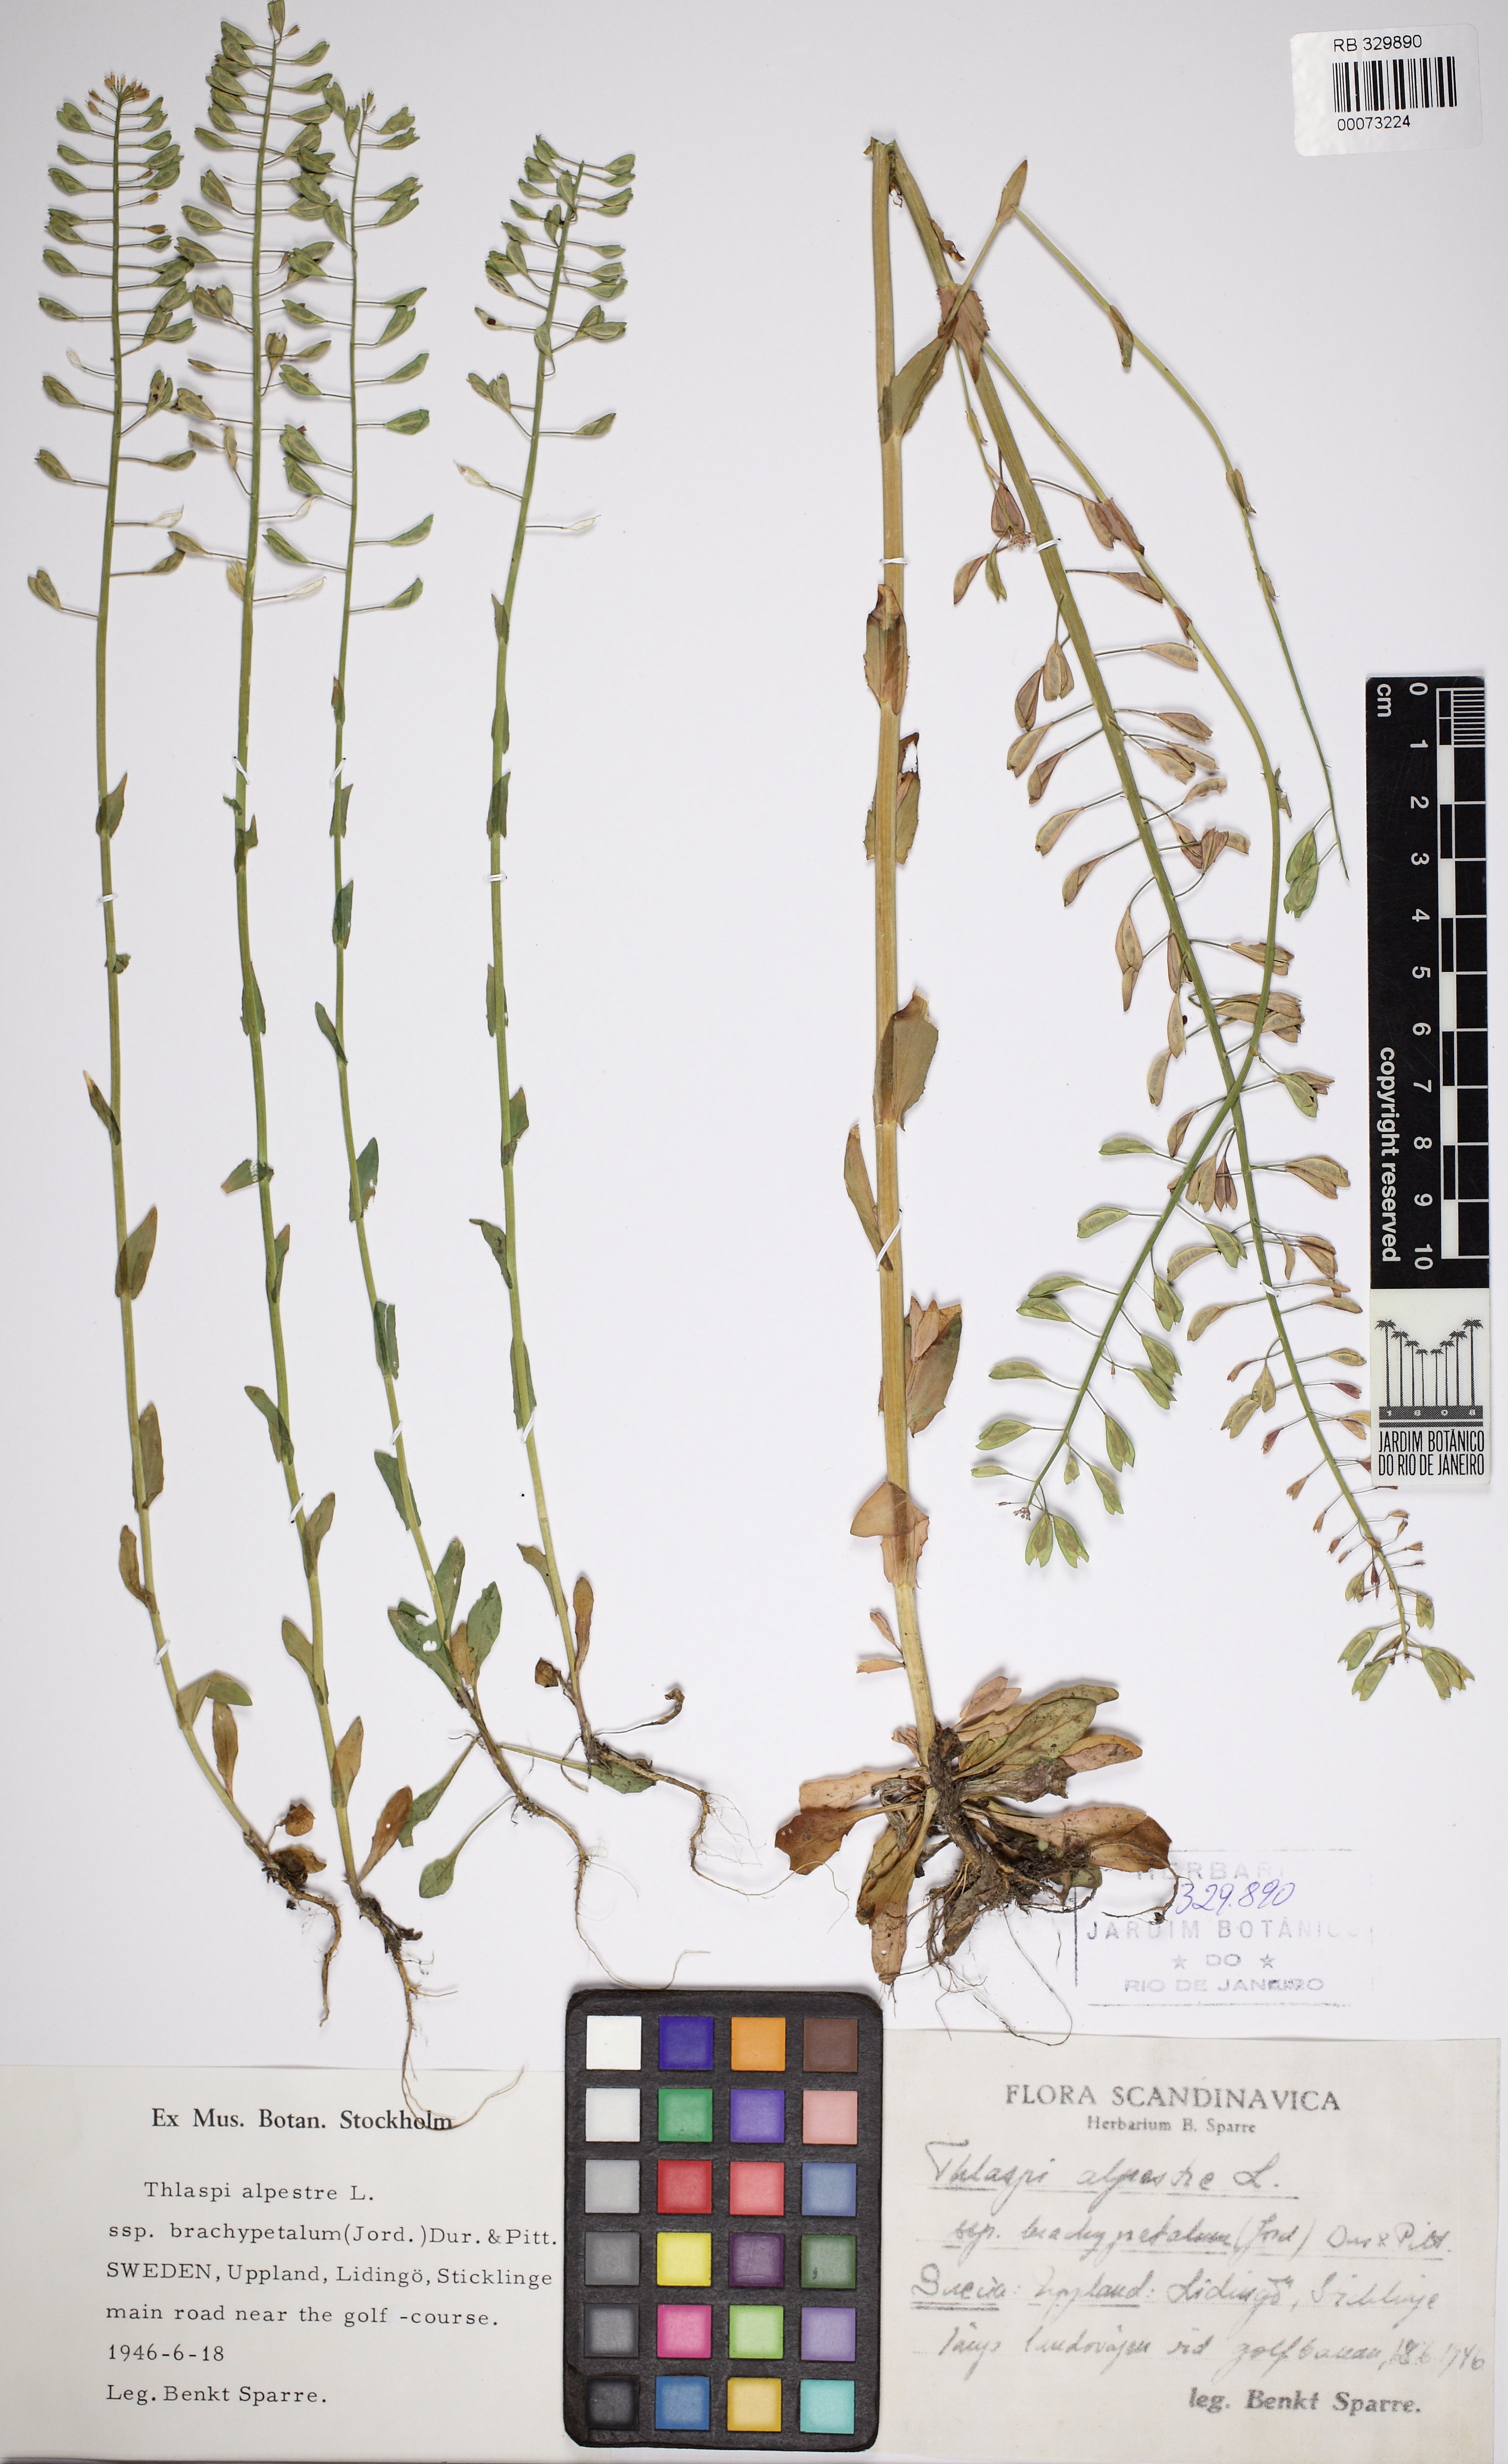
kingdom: Plantae
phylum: Tracheophyta
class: Magnoliopsida
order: Brassicales
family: Brassicaceae
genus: Noccaea
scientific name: Noccaea brachypetala
